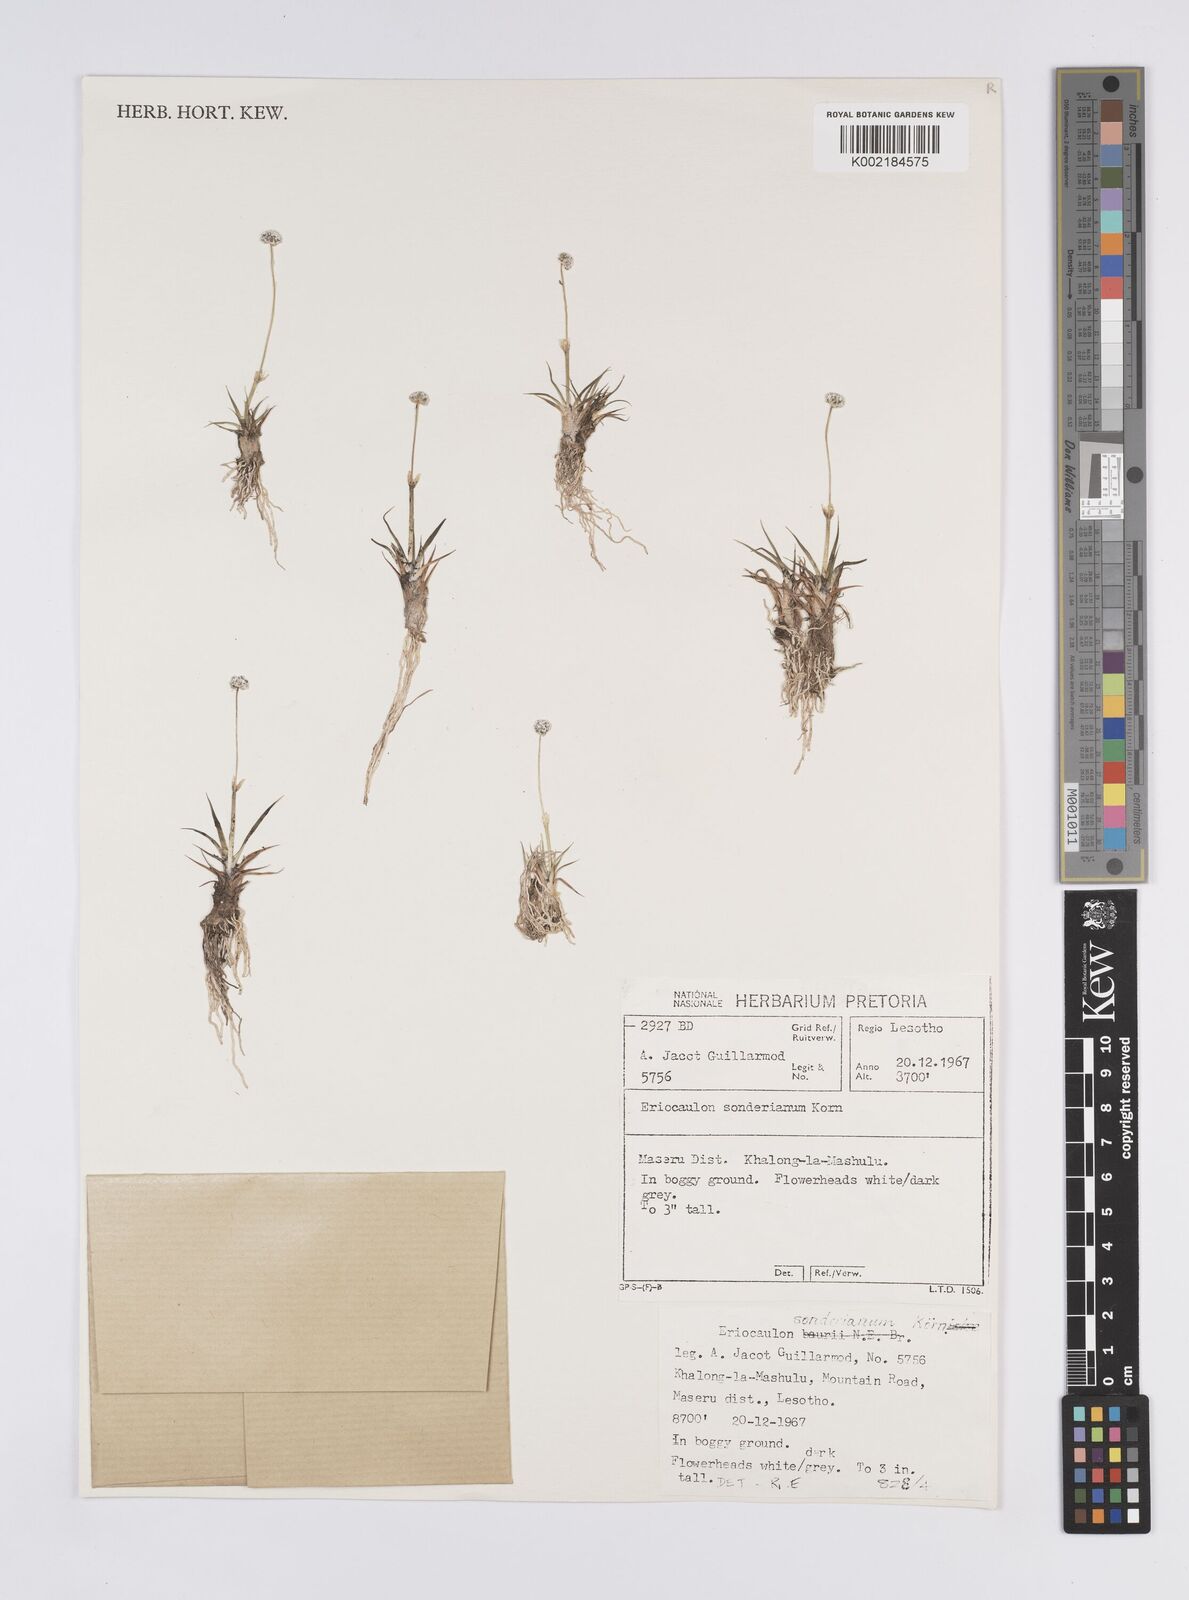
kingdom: Plantae
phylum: Tracheophyta
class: Liliopsida
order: Poales
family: Eriocaulaceae
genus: Eriocaulon
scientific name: Eriocaulon sonderianum
